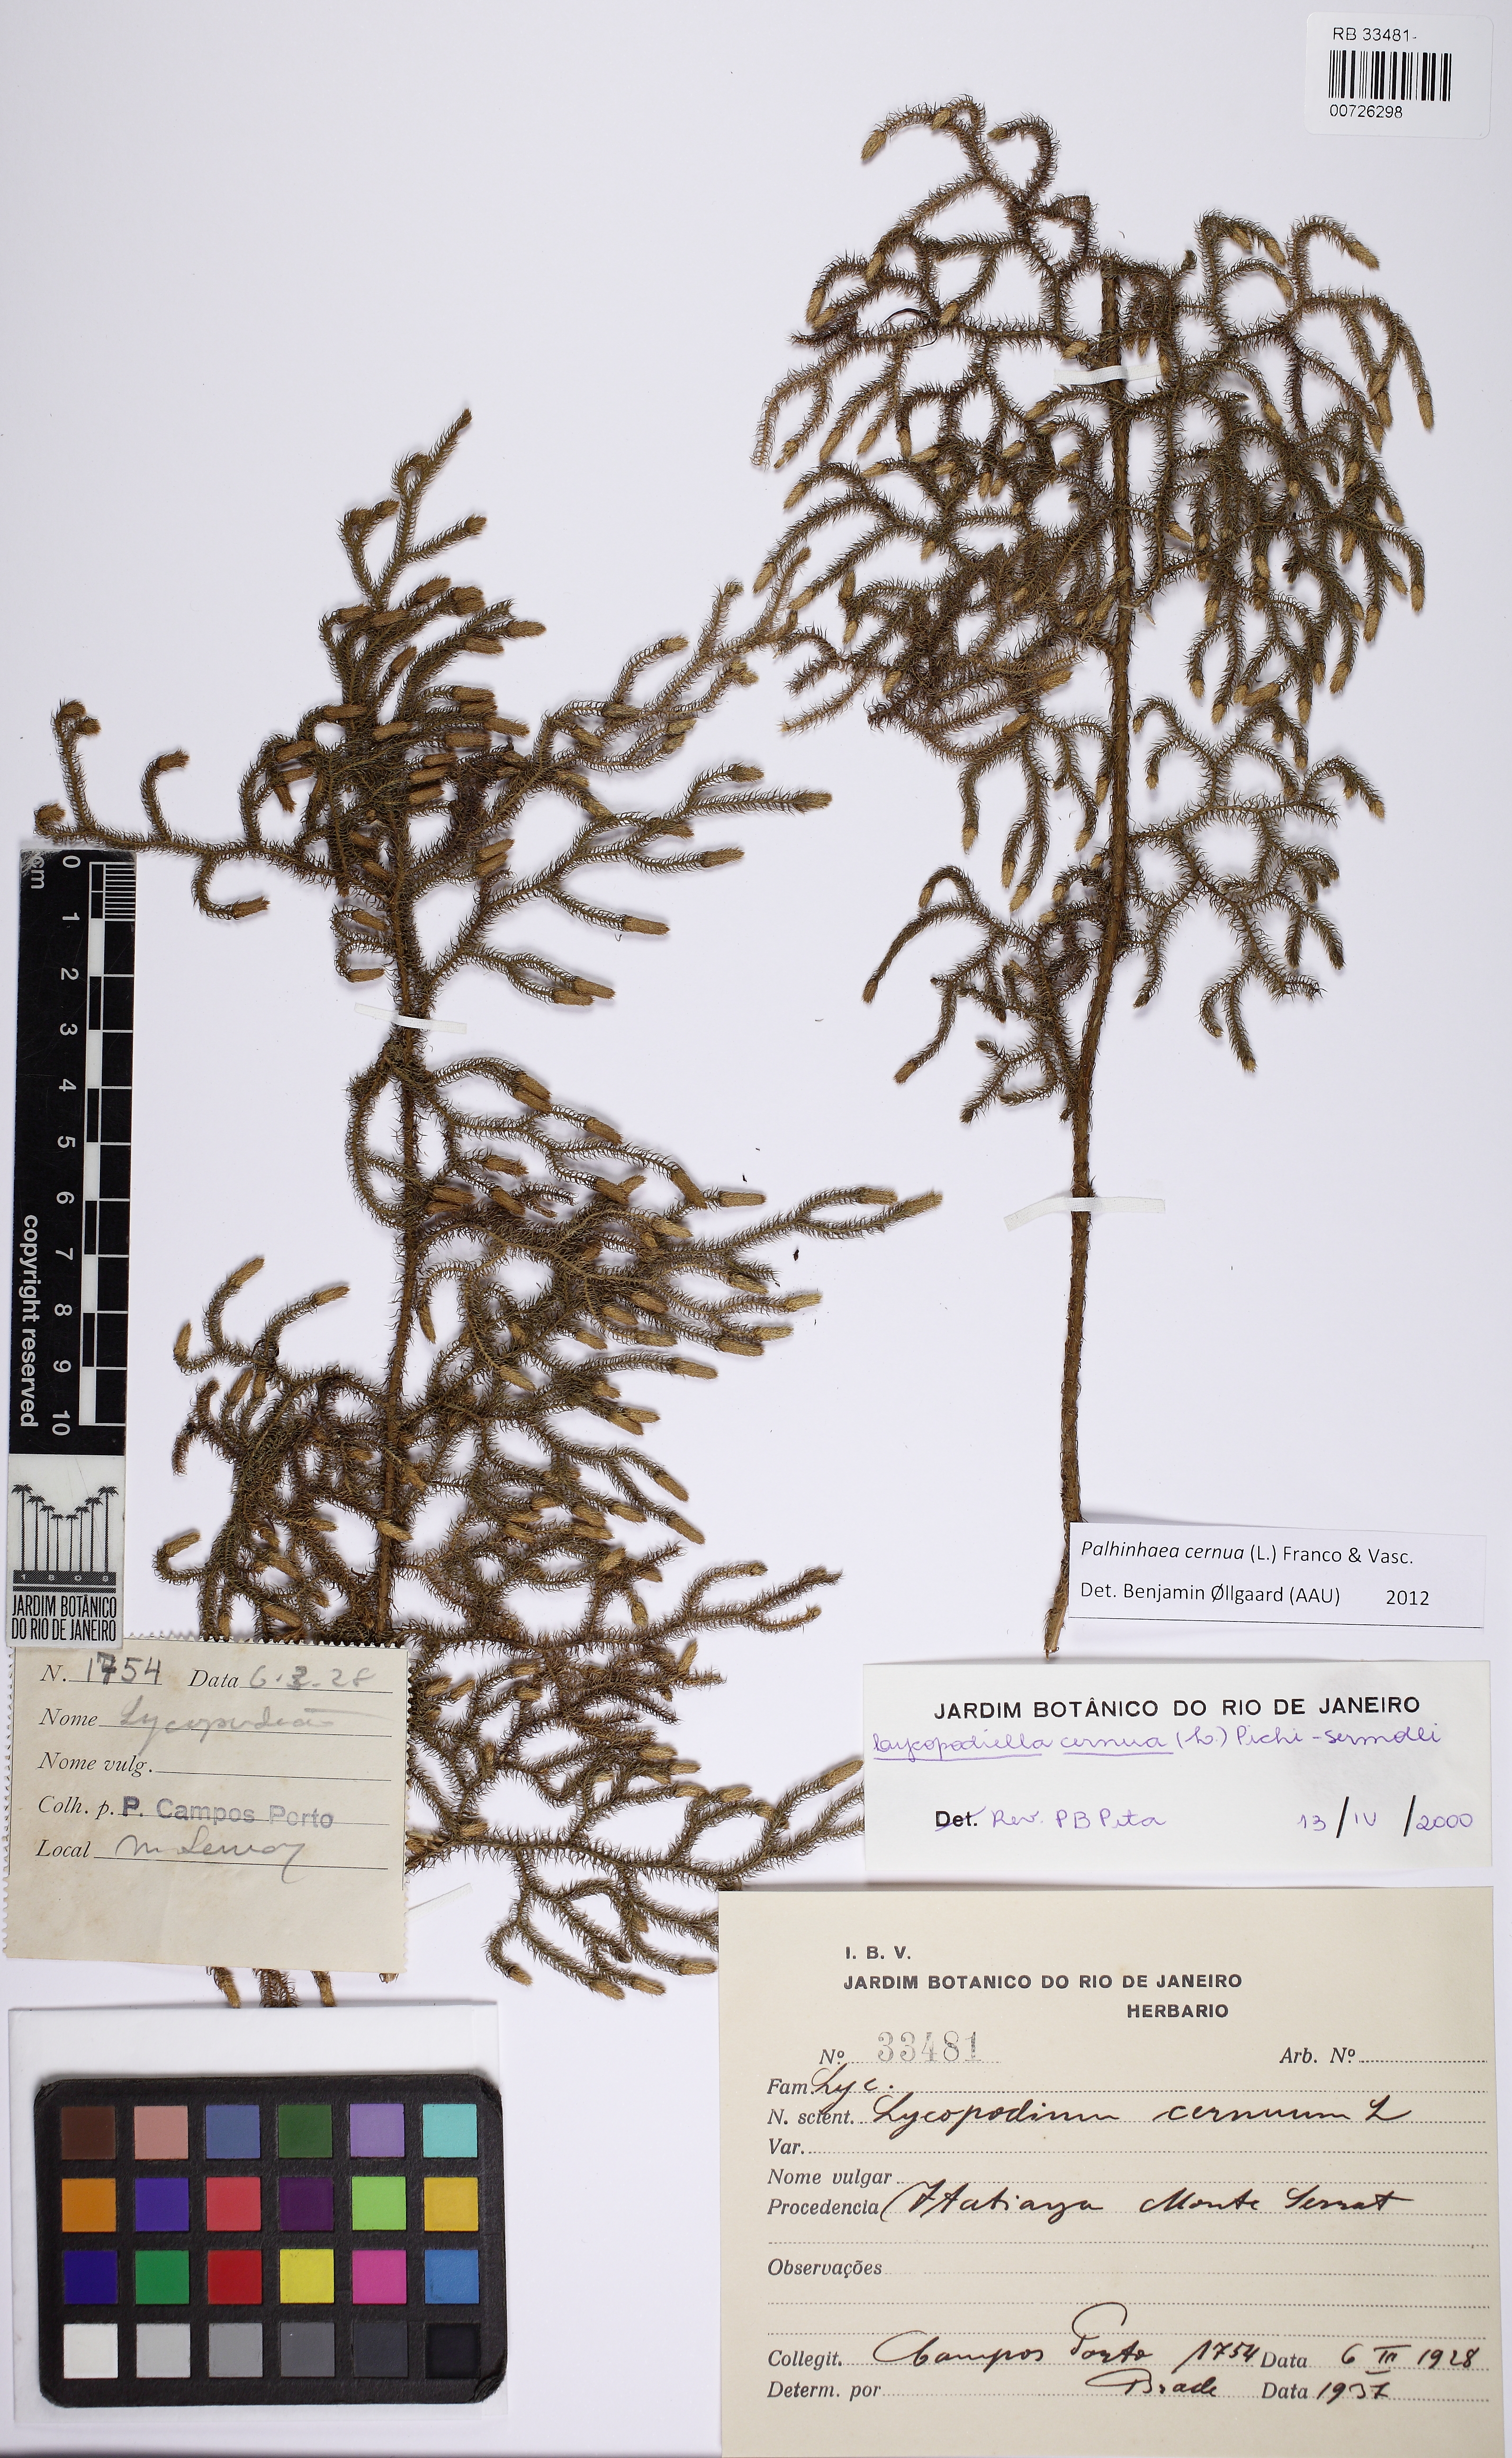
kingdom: Plantae
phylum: Tracheophyta
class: Lycopodiopsida
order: Lycopodiales
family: Lycopodiaceae
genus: Palhinhaea
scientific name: Palhinhaea cernua
